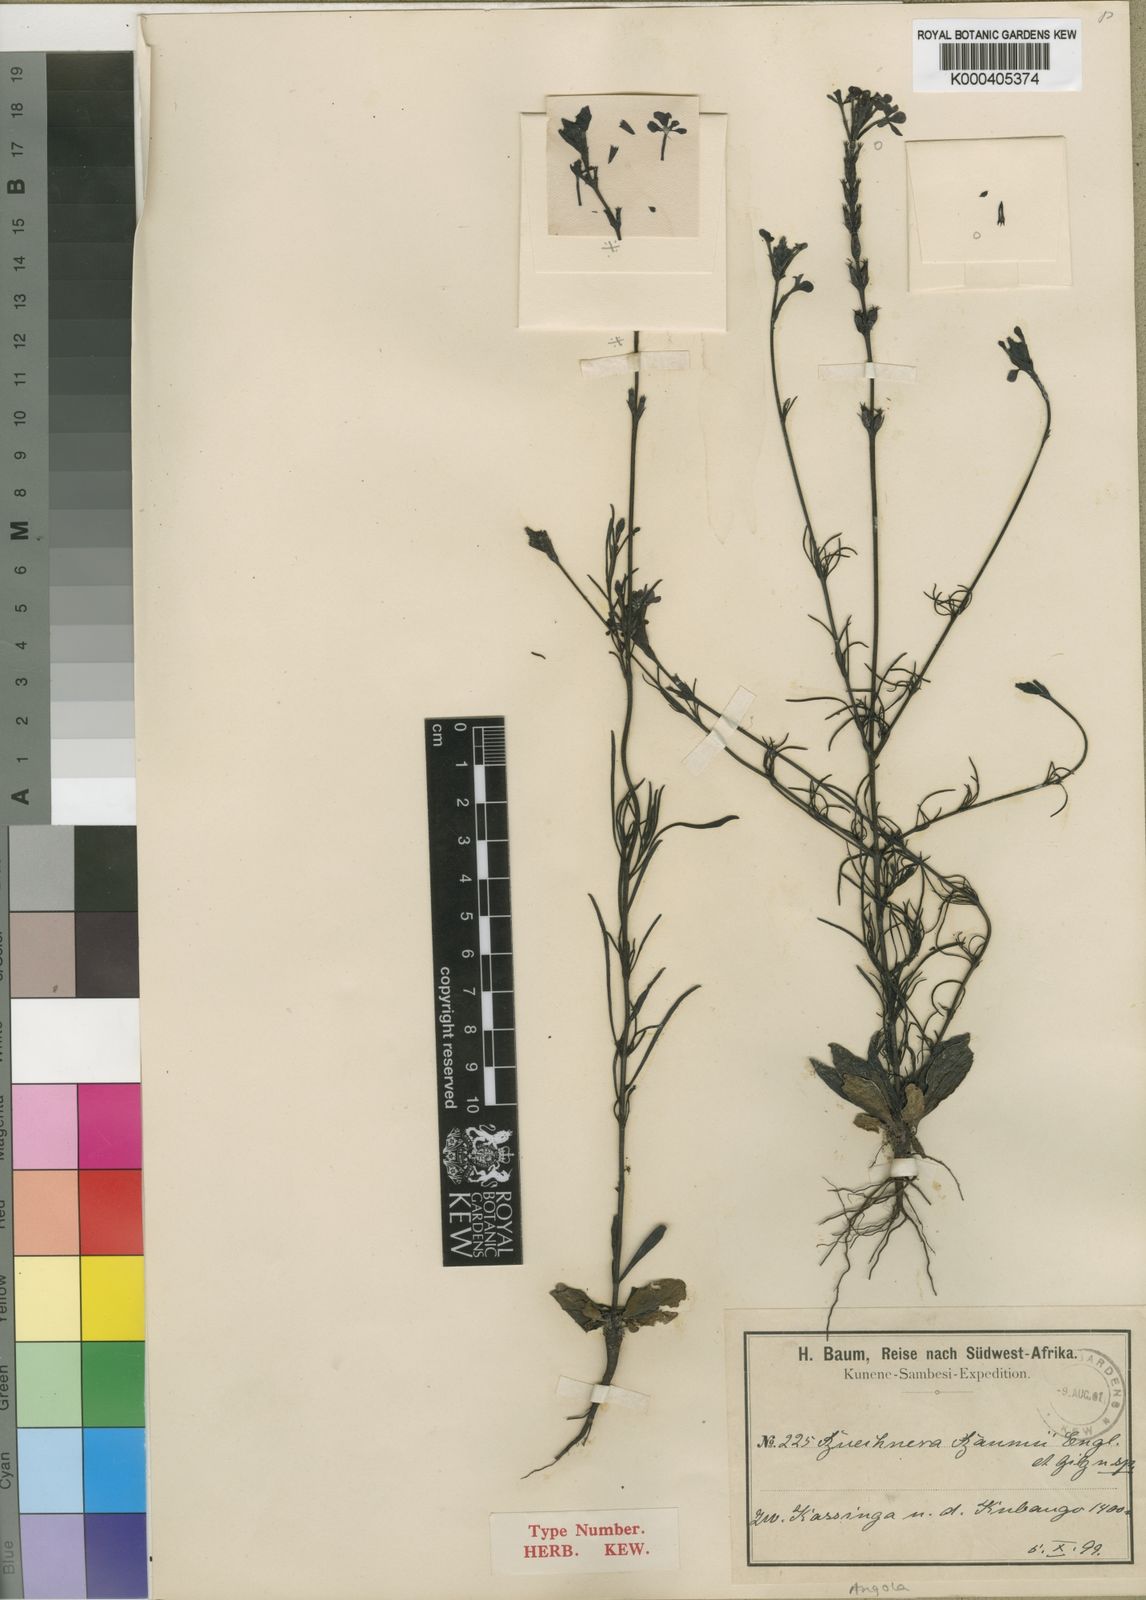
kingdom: Plantae
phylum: Tracheophyta
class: Magnoliopsida
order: Lamiales
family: Orobanchaceae
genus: Buchnera
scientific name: Buchnera baumii
